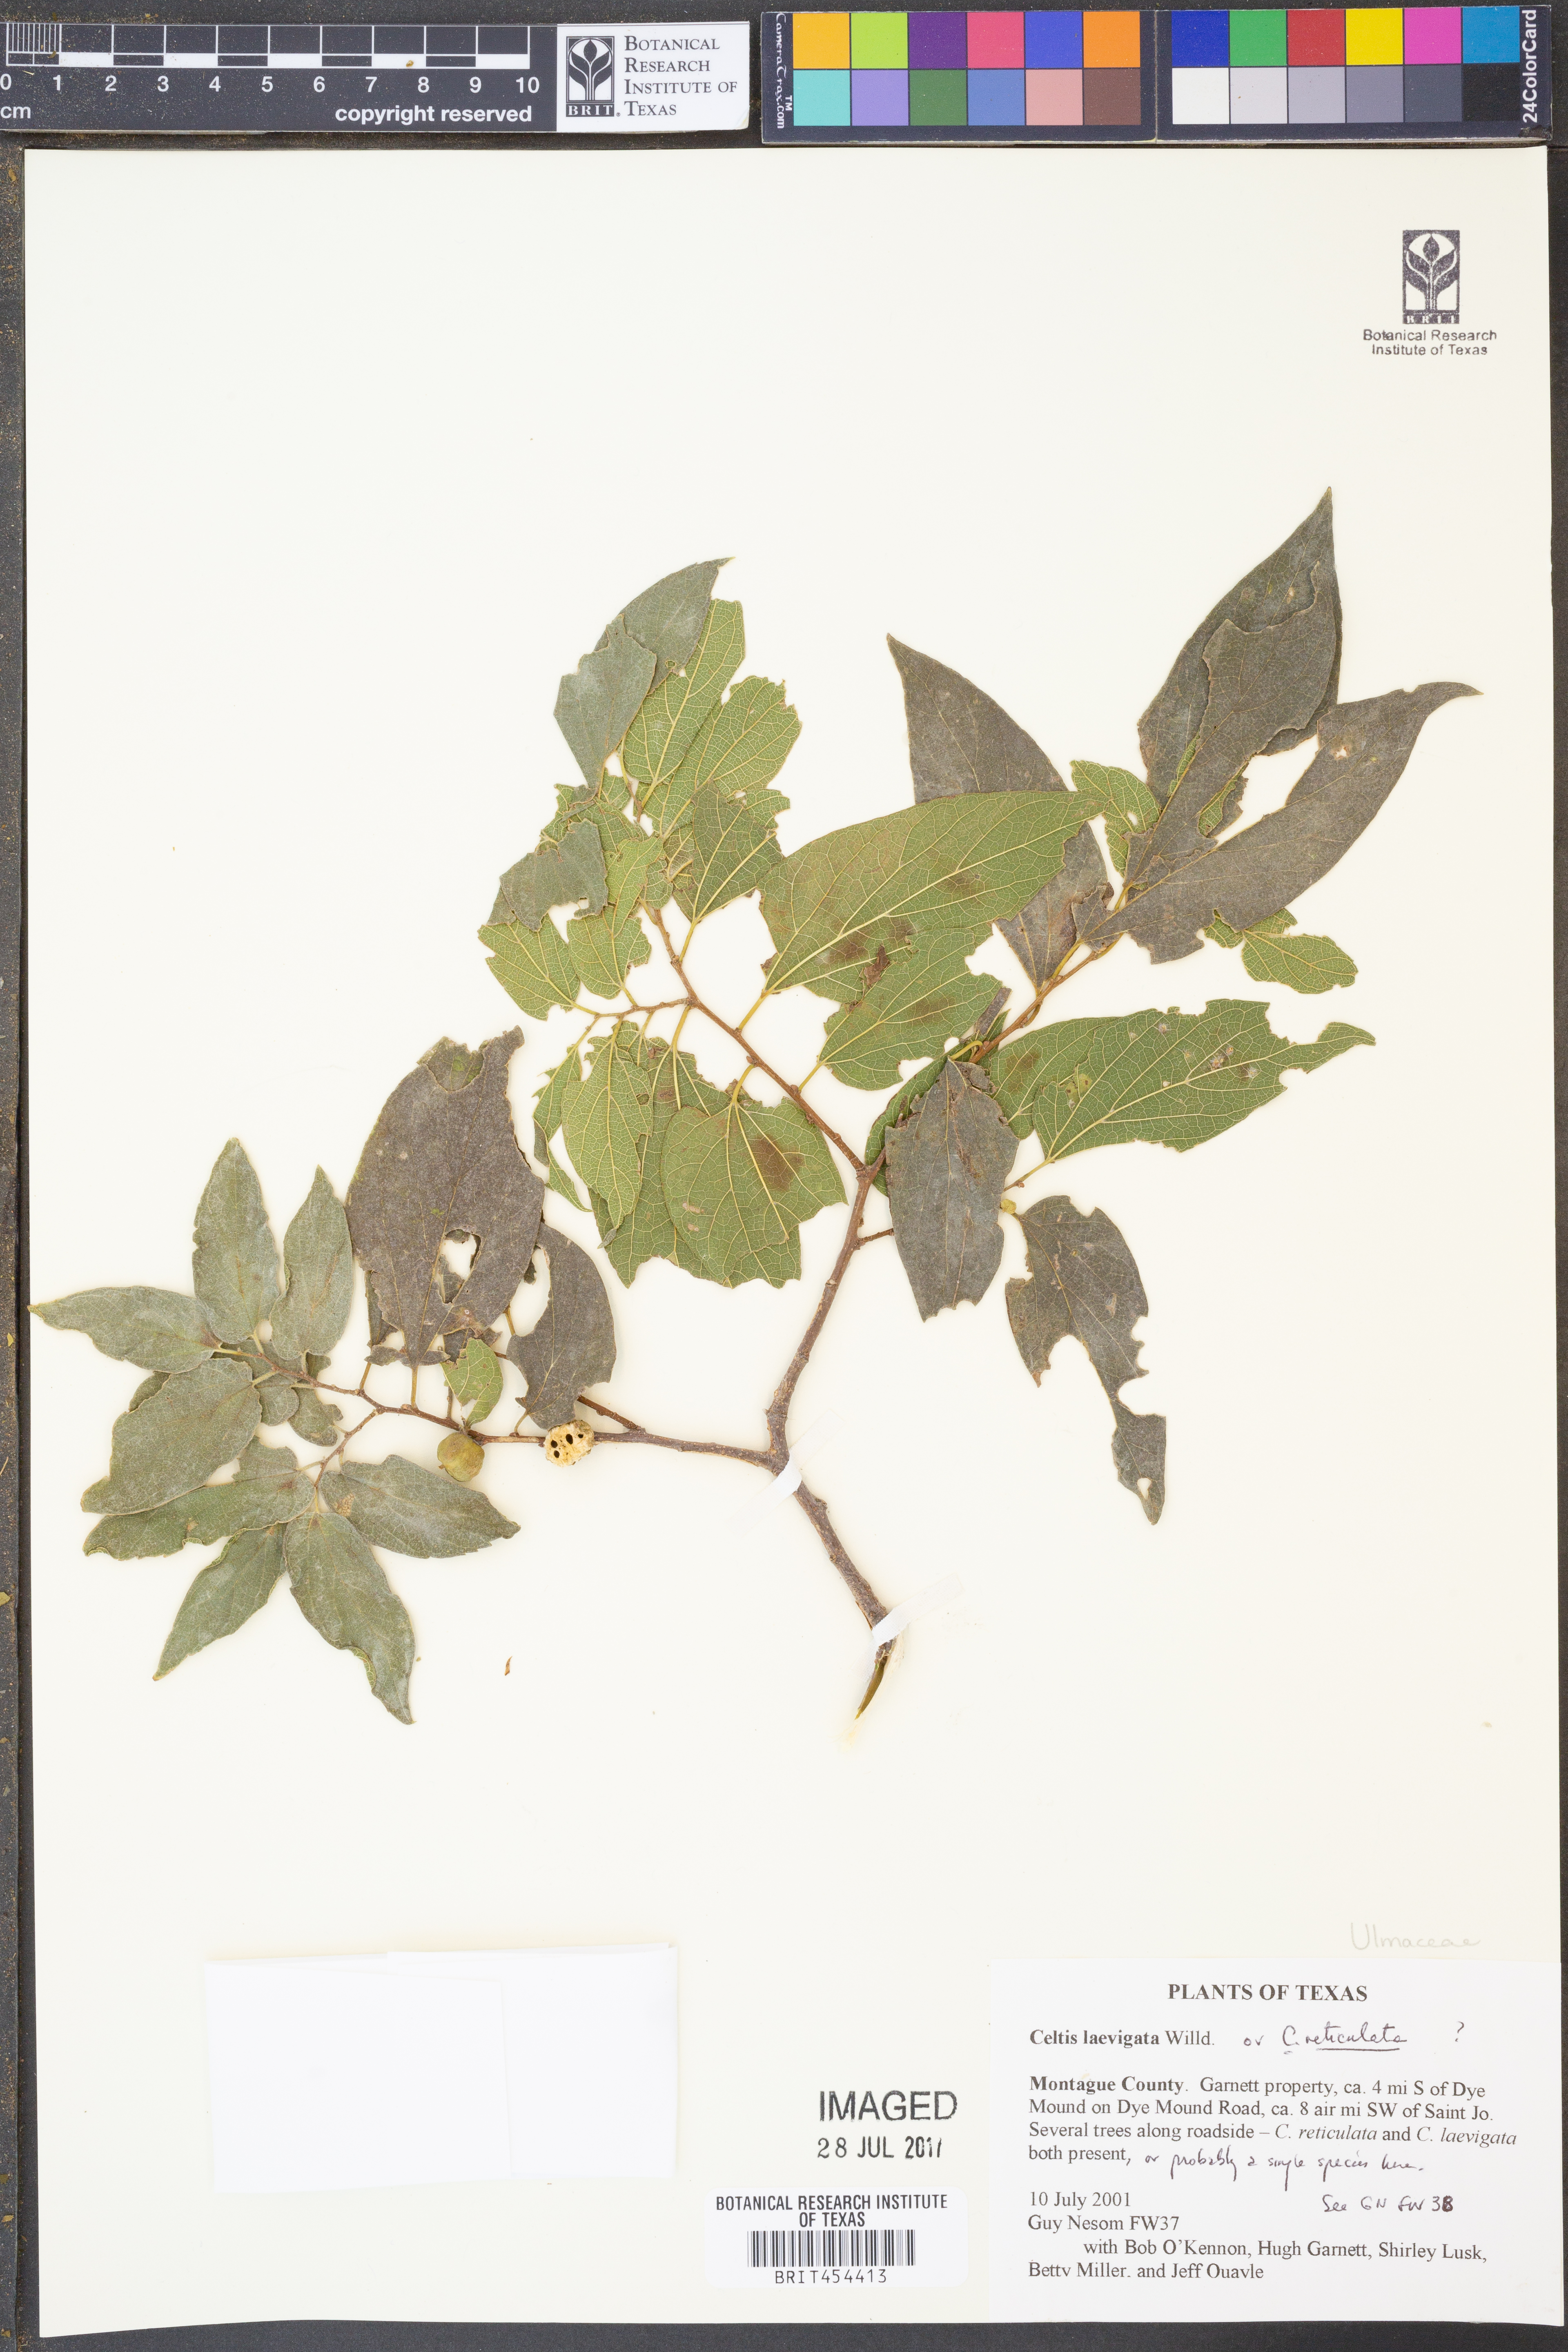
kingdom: Plantae
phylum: Tracheophyta
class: Magnoliopsida
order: Rosales
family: Cannabaceae
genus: Celtis
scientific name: Celtis laevigata
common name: Sugarberry
